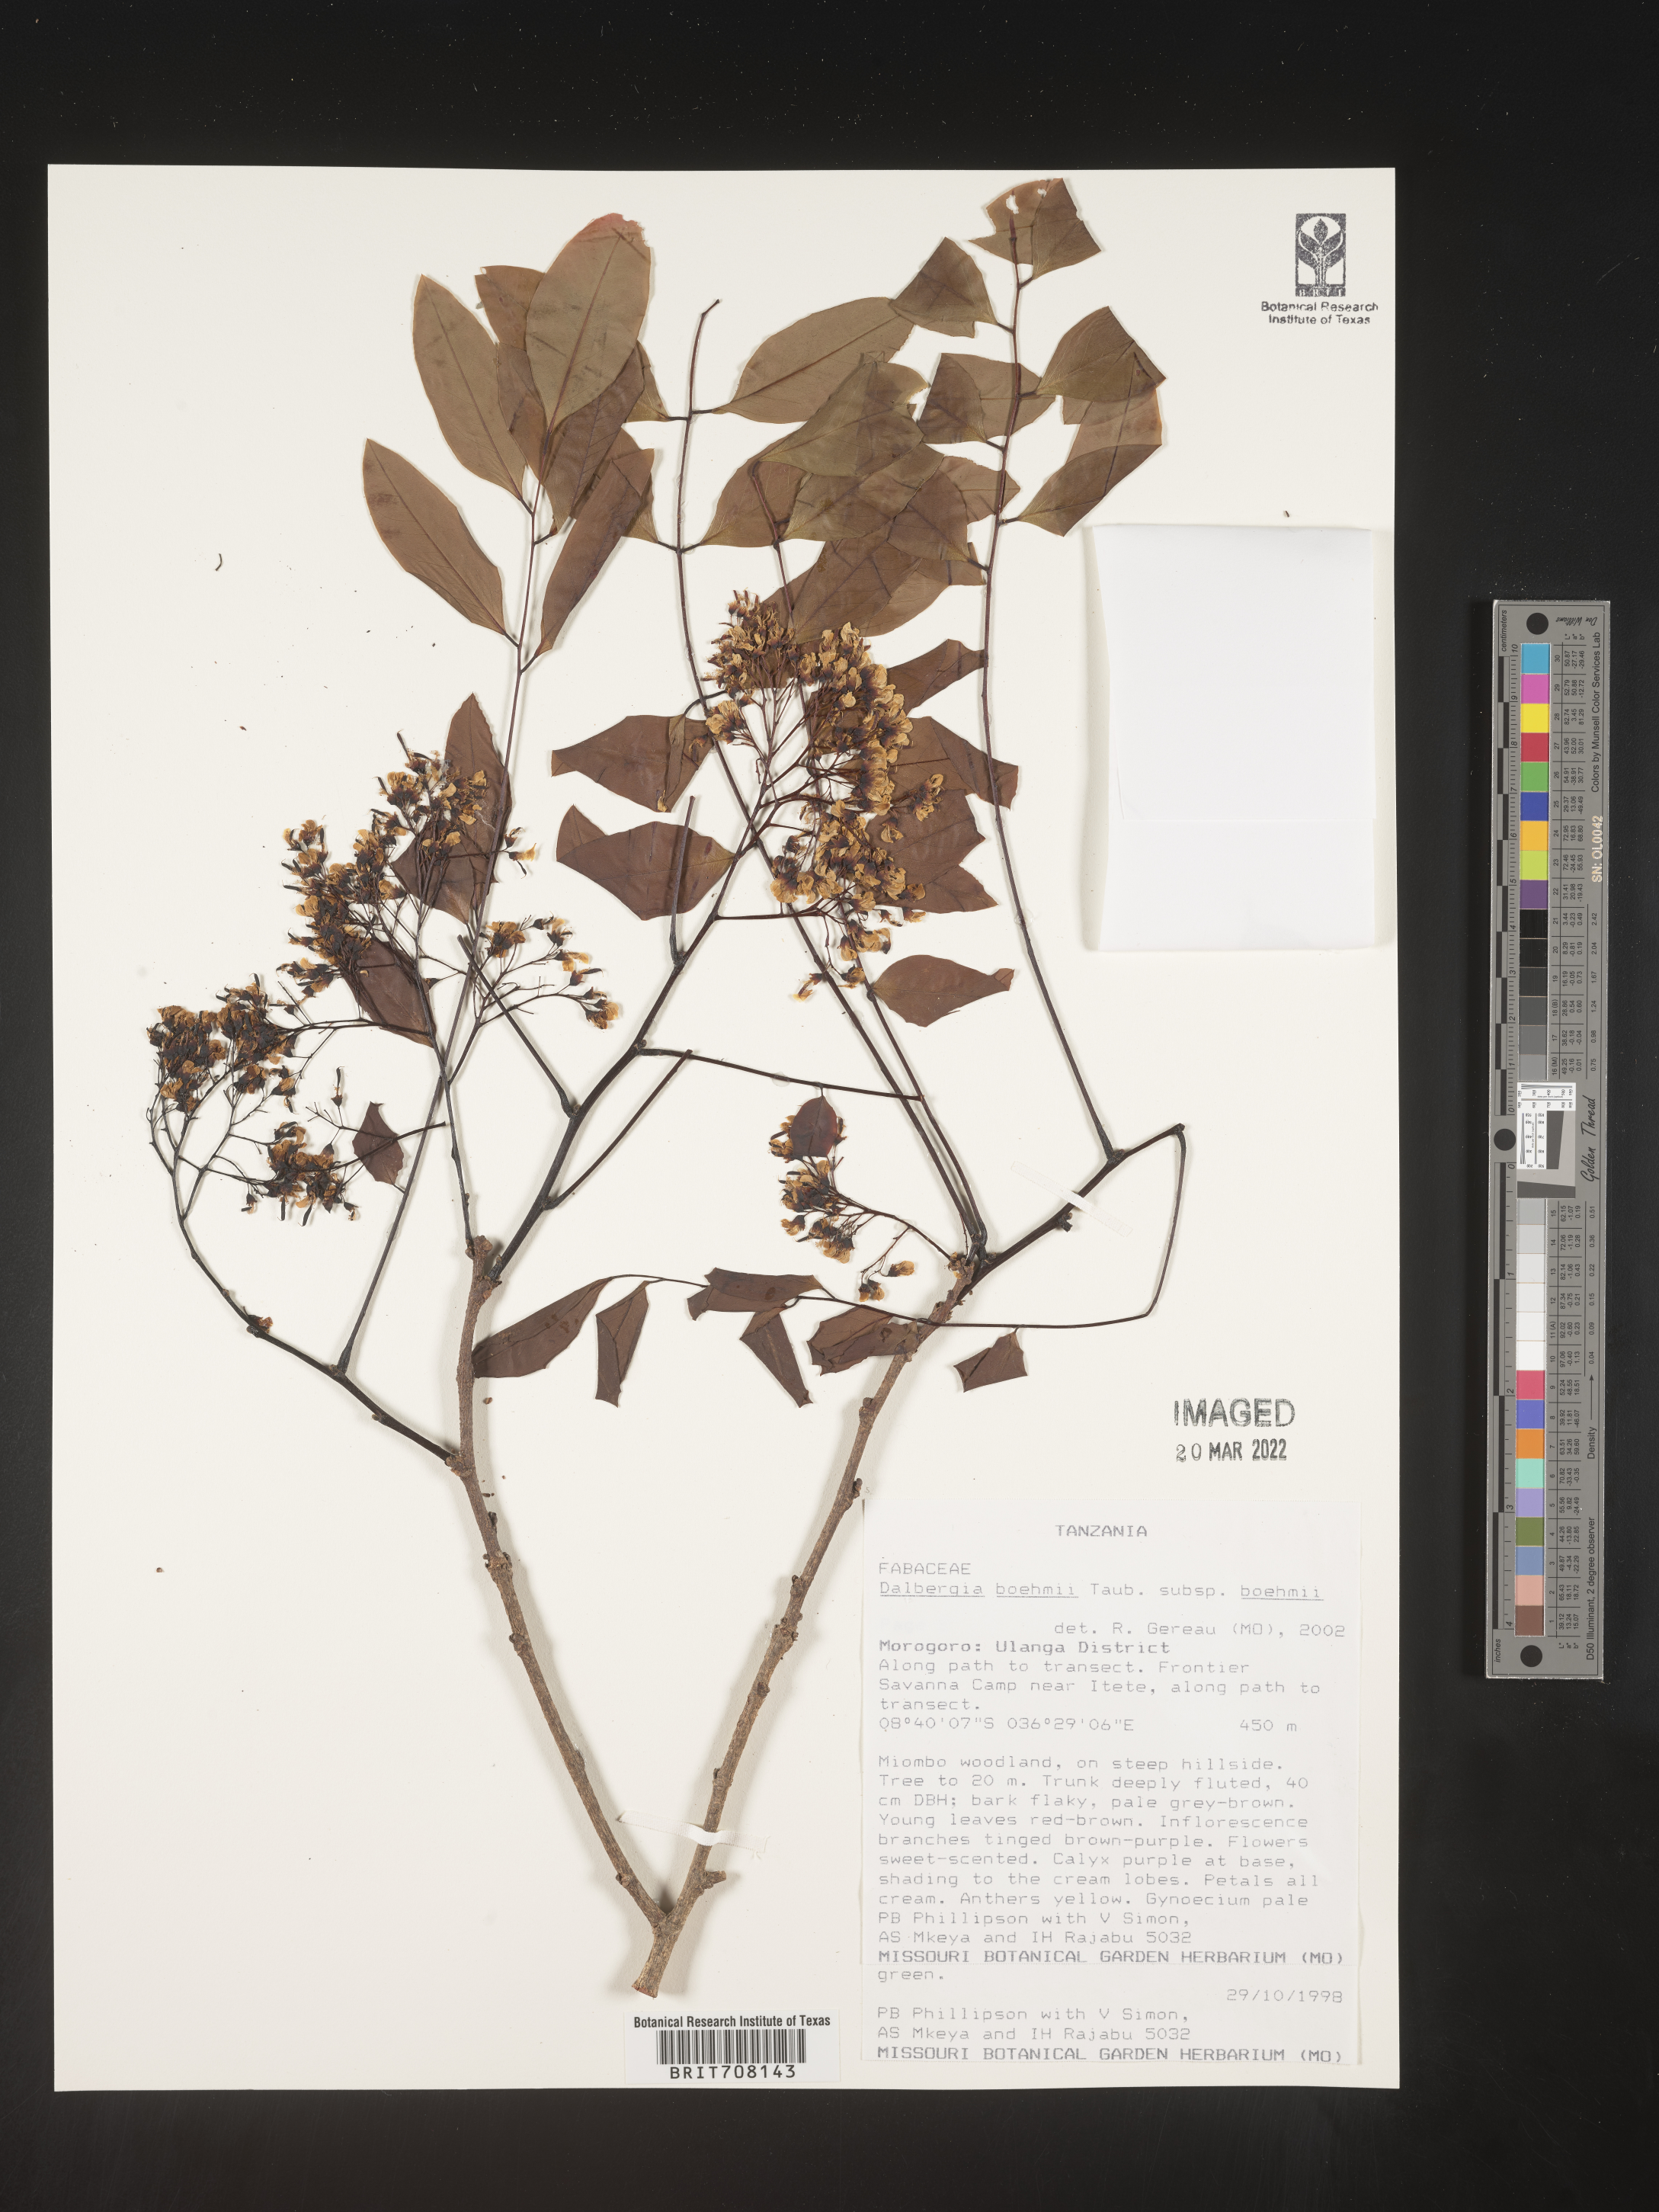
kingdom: Plantae
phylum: Tracheophyta
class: Magnoliopsida
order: Fabales
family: Fabaceae
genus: Dalbergia
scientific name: Dalbergia
